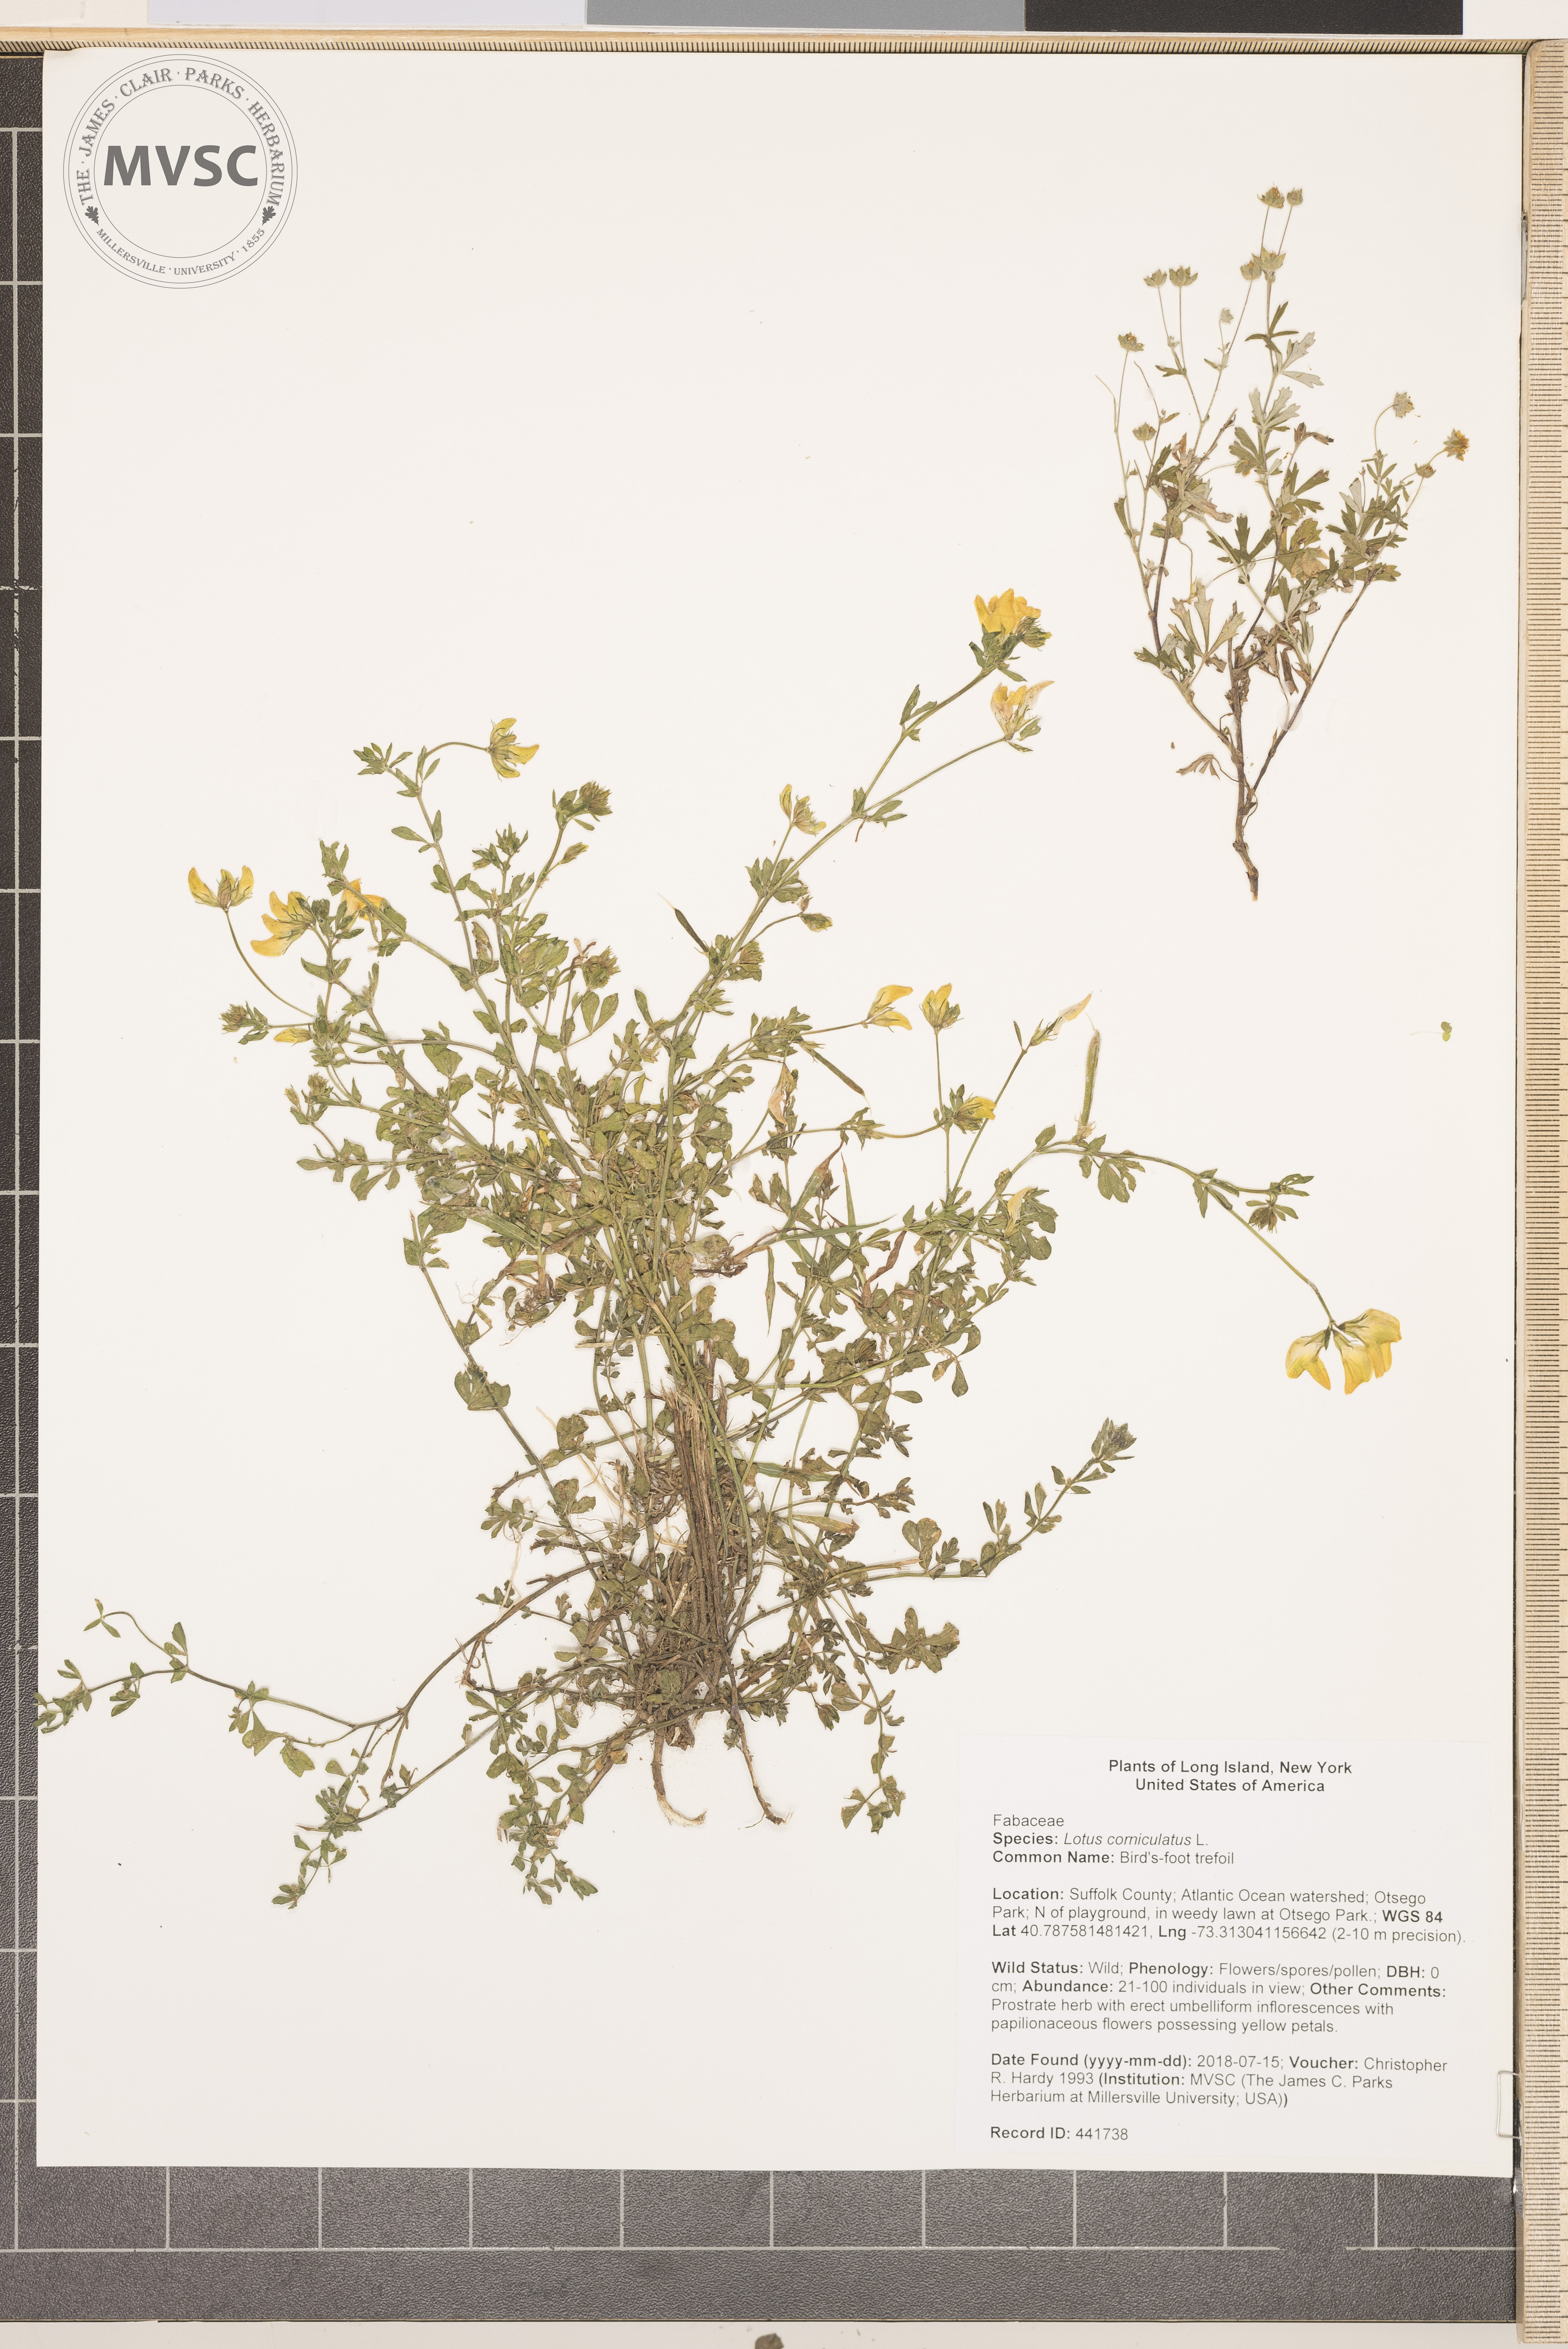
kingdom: Plantae
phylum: Tracheophyta
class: Magnoliopsida
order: Fabales
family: Fabaceae
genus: Lotus
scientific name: Lotus corniculatus
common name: Bird's-foot trefoil
